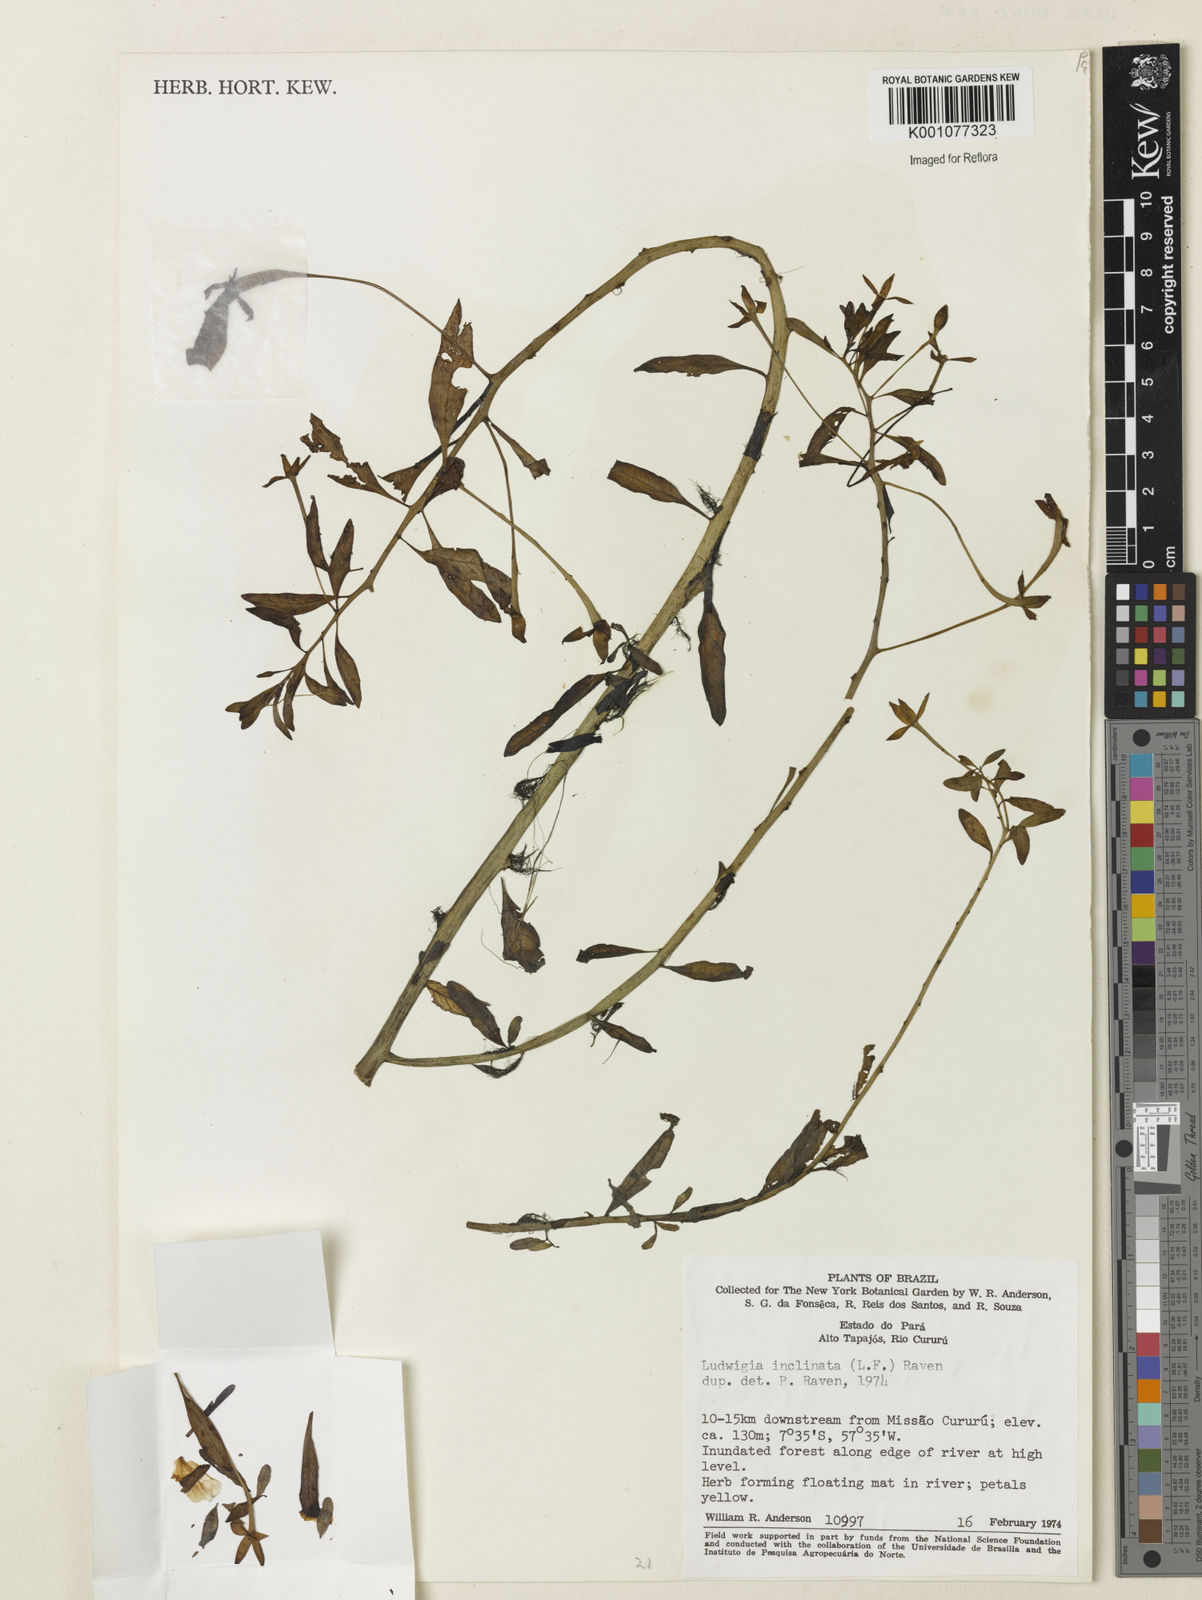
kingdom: Plantae
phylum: Tracheophyta
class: Magnoliopsida
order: Myrtales
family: Onagraceae
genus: Ludwigia
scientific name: Ludwigia
